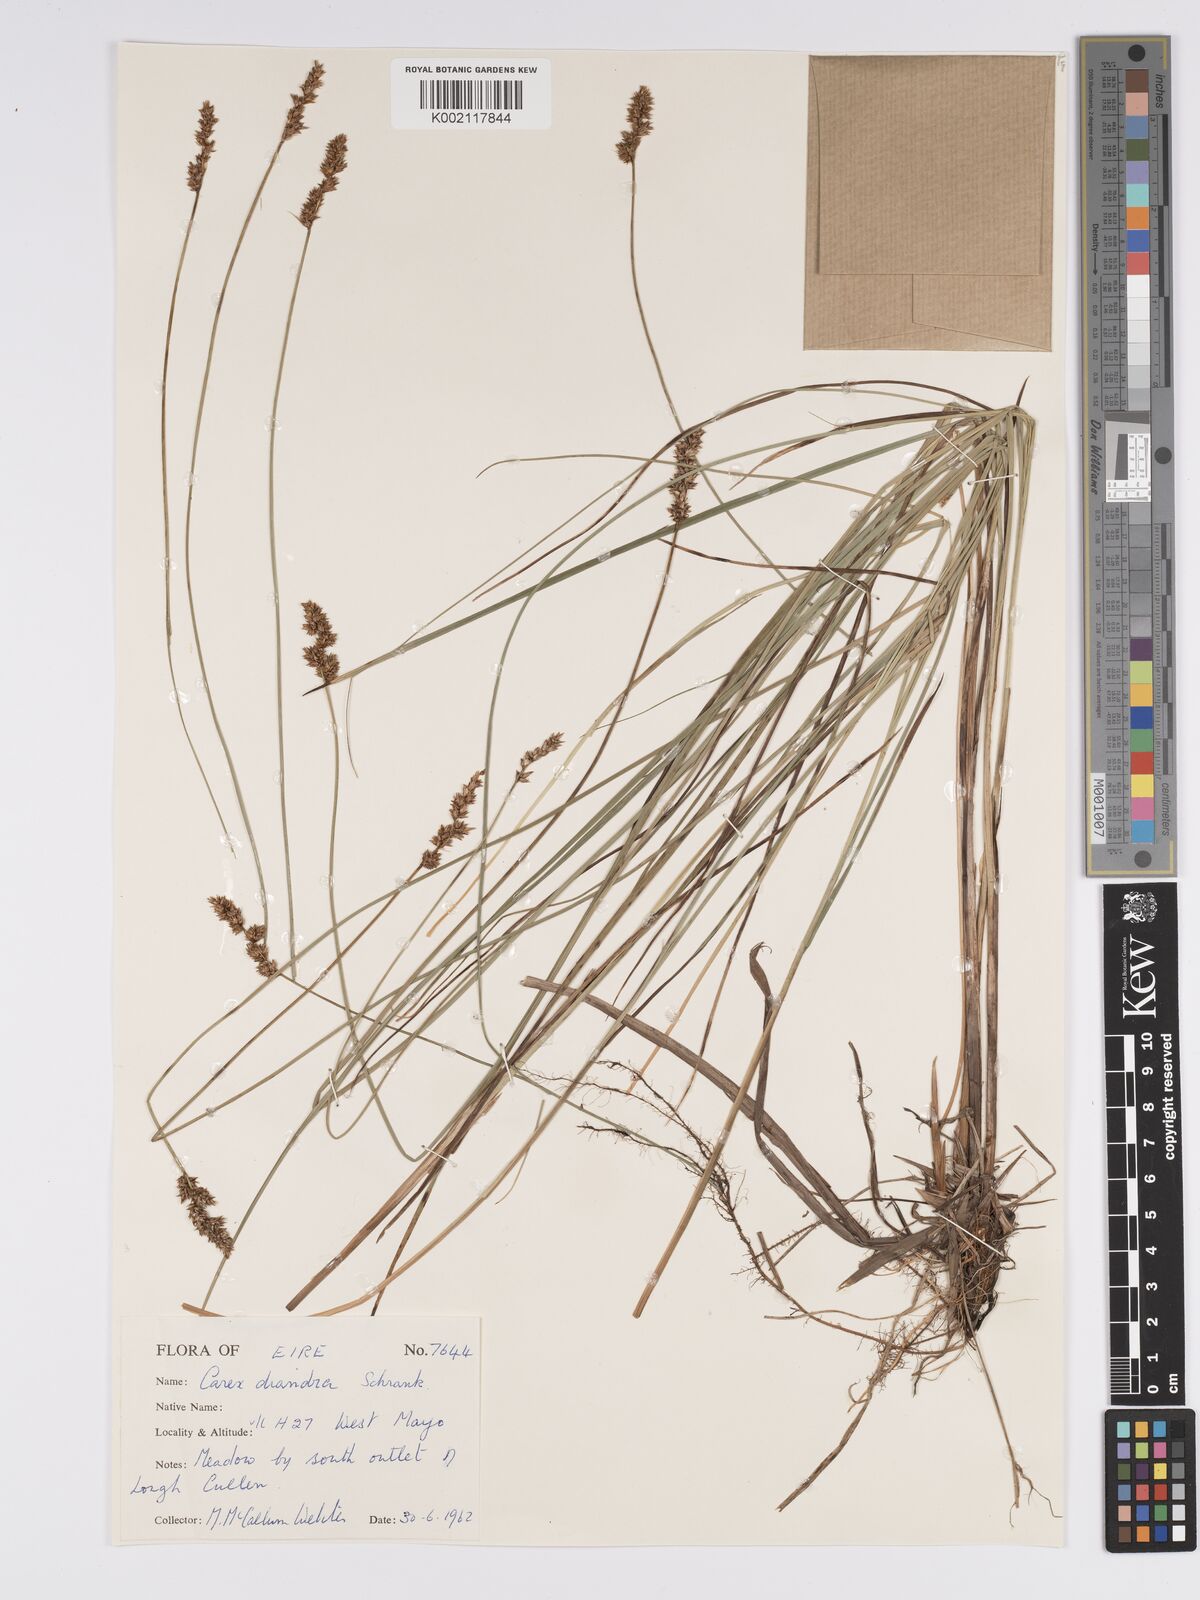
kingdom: Plantae
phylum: Tracheophyta
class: Liliopsida
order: Poales
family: Cyperaceae
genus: Carex
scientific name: Carex diandra
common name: Lesser tussock-sedge
